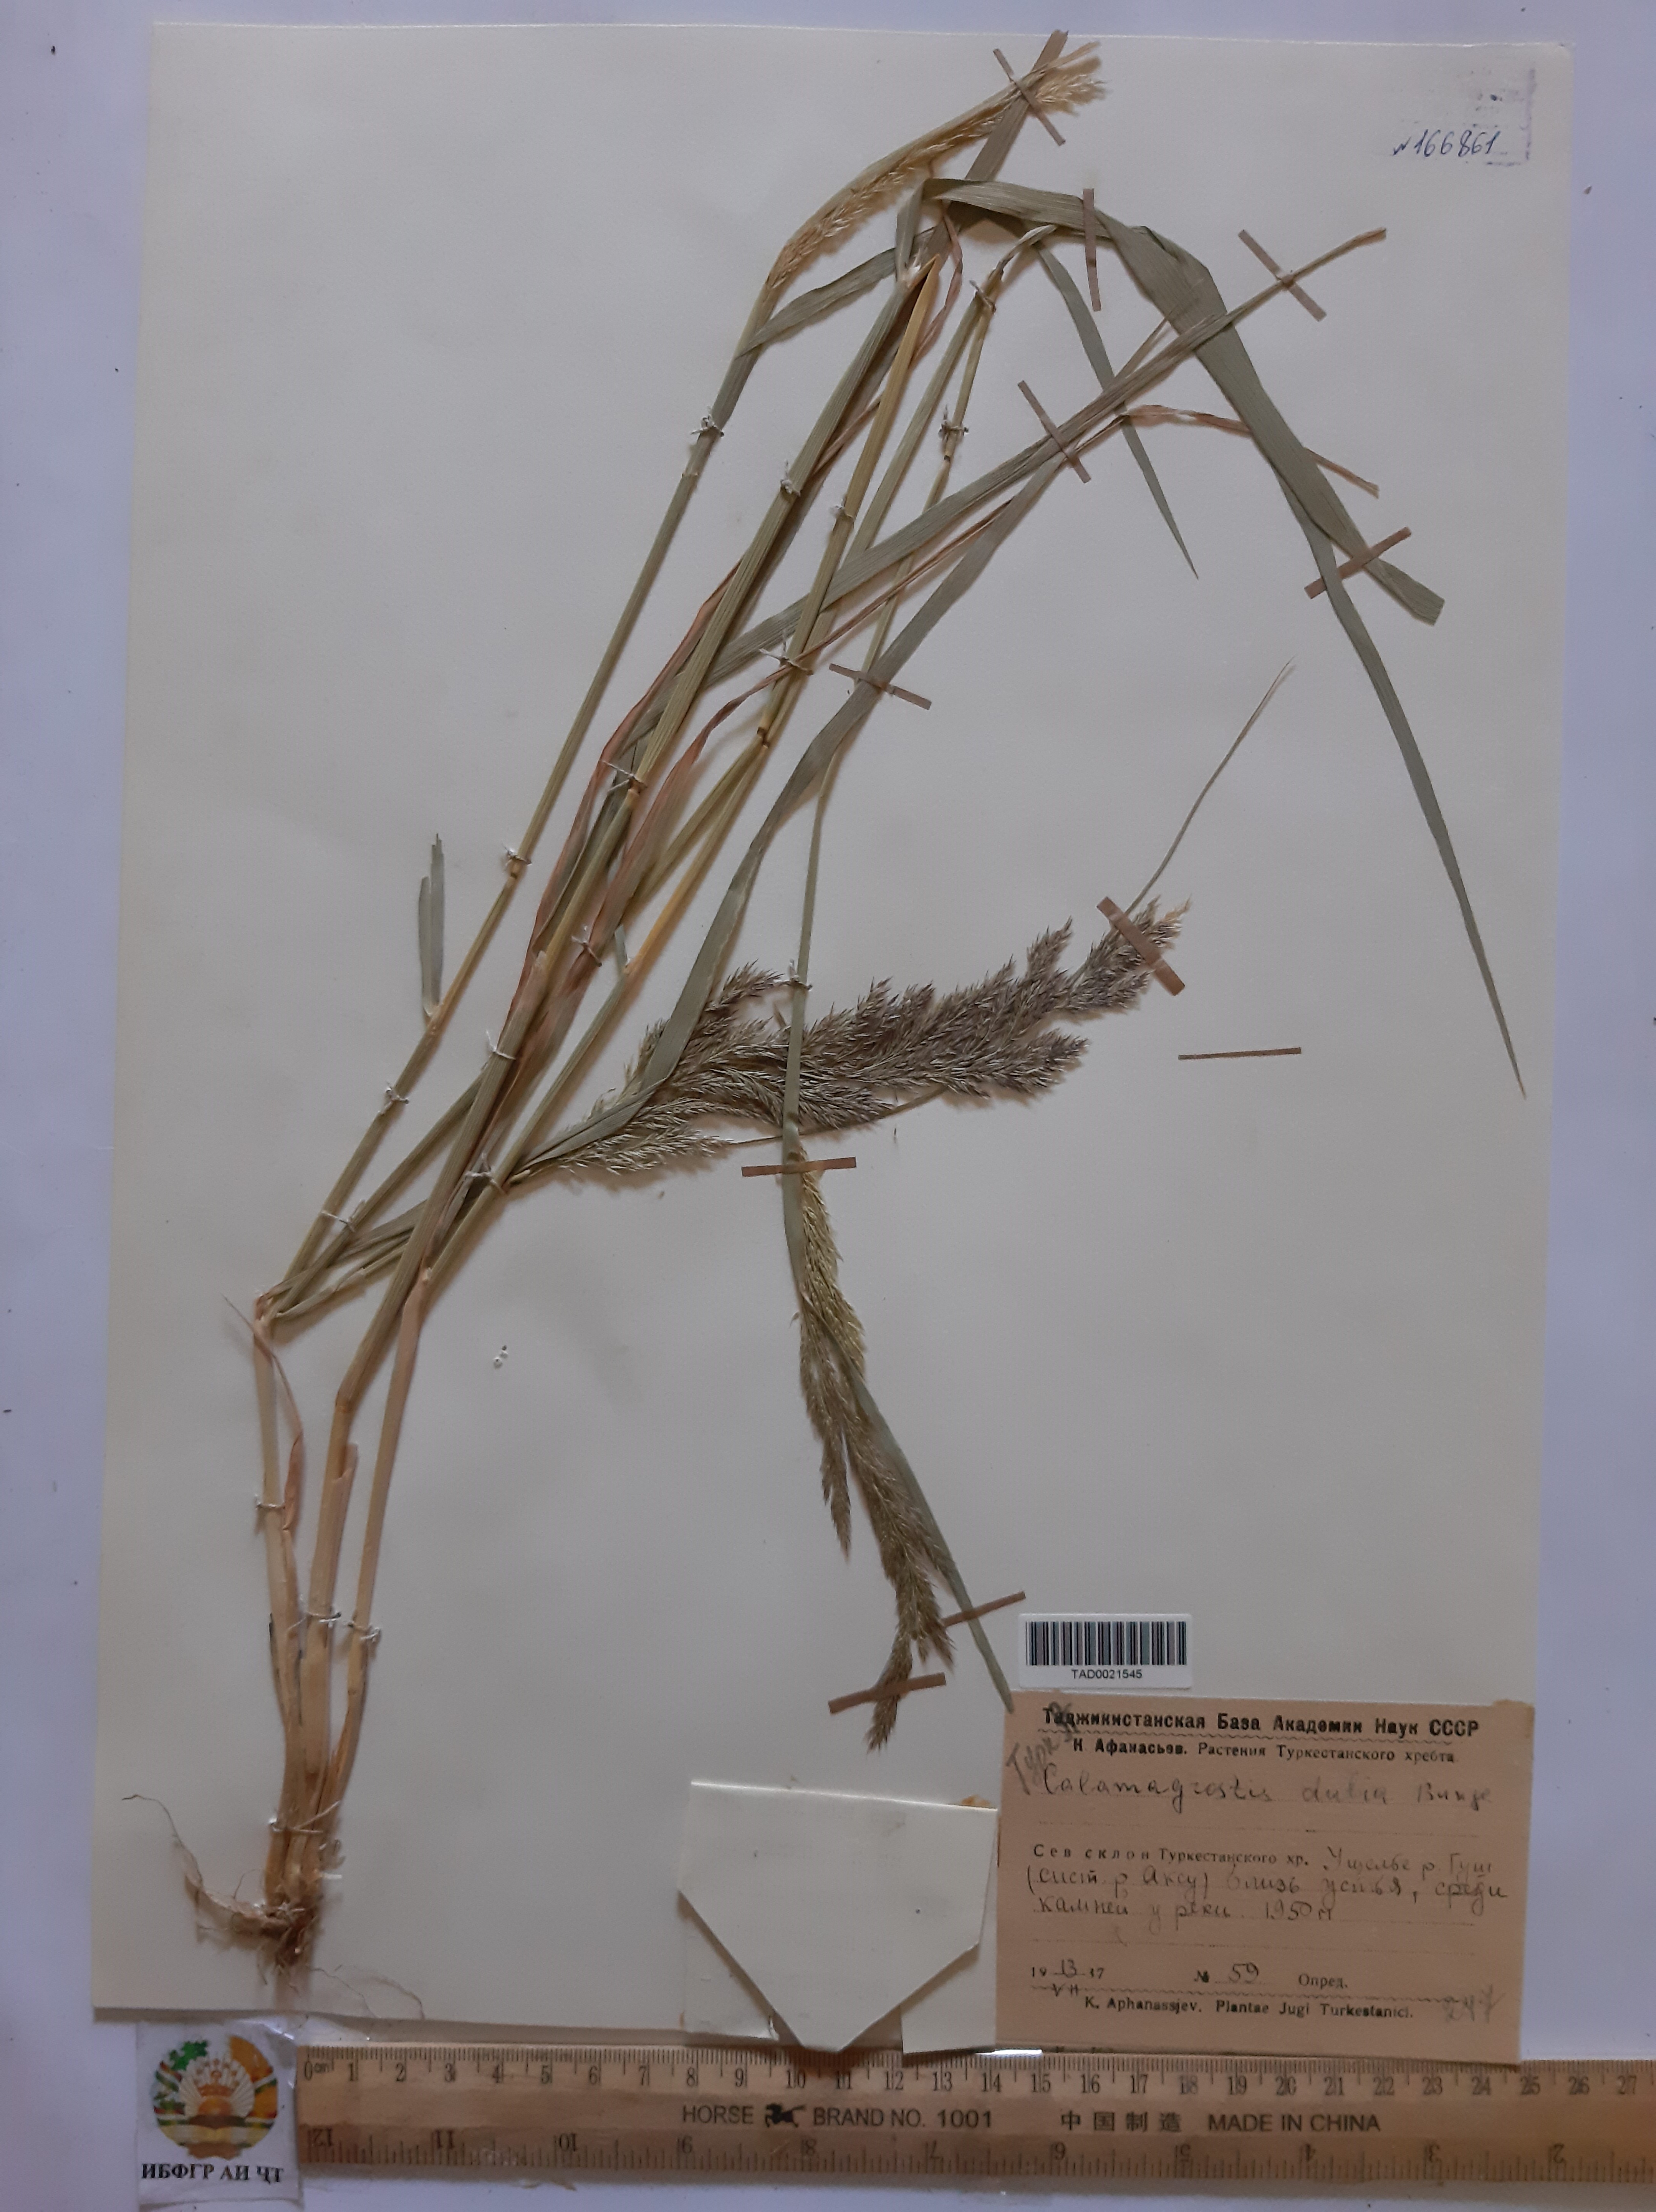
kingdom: Plantae
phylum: Tracheophyta
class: Liliopsida
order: Poales
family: Poaceae
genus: Calamagrostis
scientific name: Calamagrostis pseudophragmites
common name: Coastal small-reed
